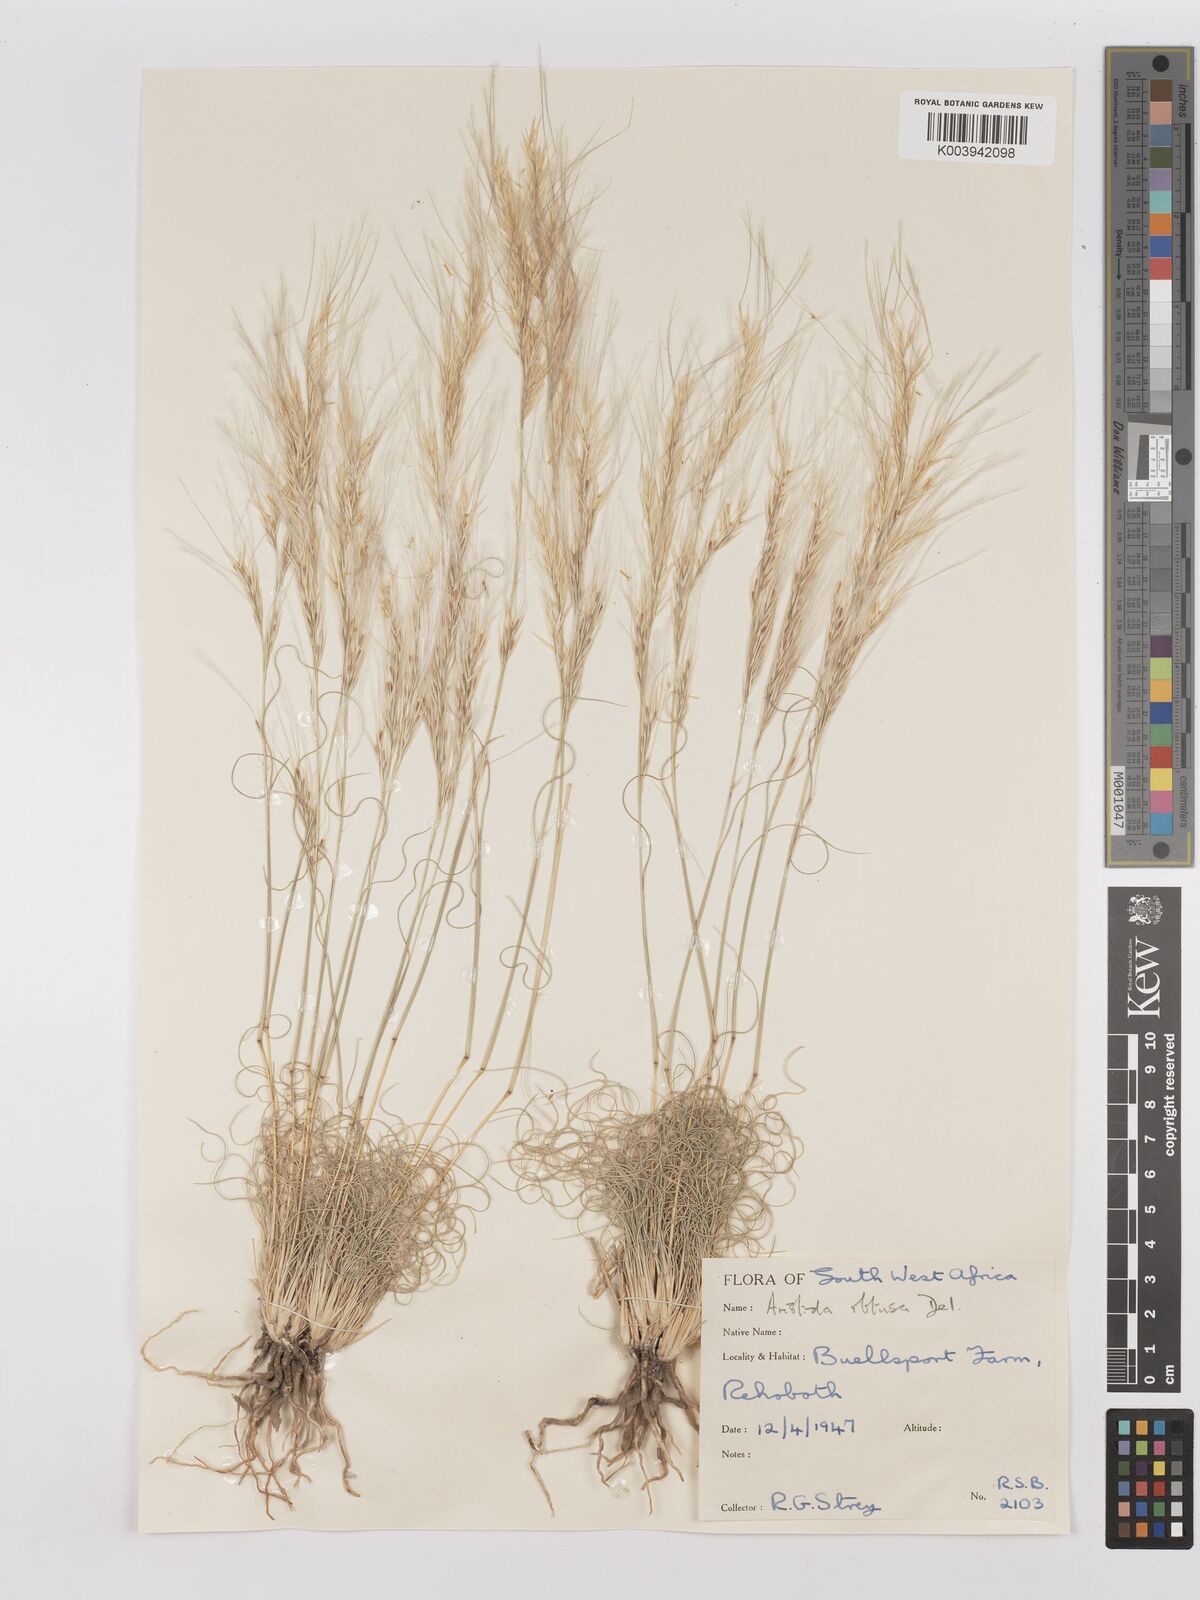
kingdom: Plantae
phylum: Tracheophyta
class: Liliopsida
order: Poales
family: Poaceae
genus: Stipagrostis
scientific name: Stipagrostis obtusa
